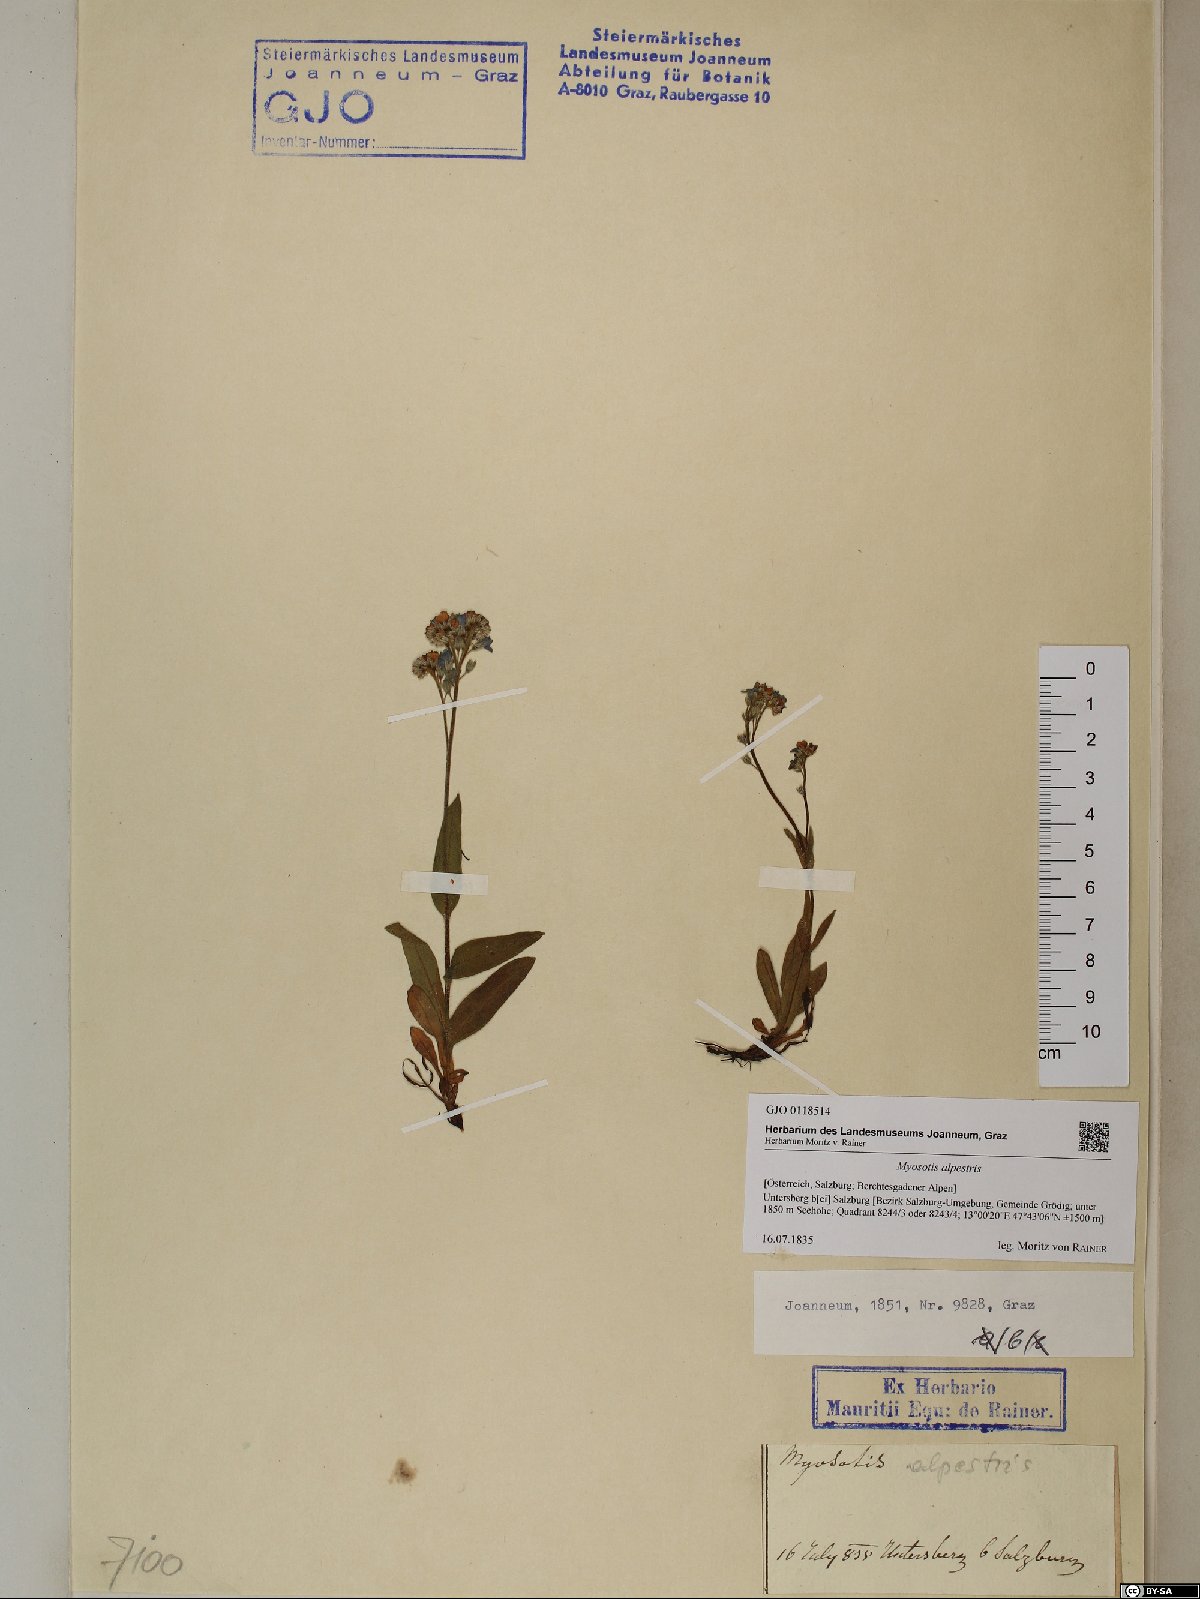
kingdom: Plantae
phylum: Tracheophyta
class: Magnoliopsida
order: Boraginales
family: Boraginaceae
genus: Myosotis
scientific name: Myosotis alpestris
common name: Alpine forget-me-not
